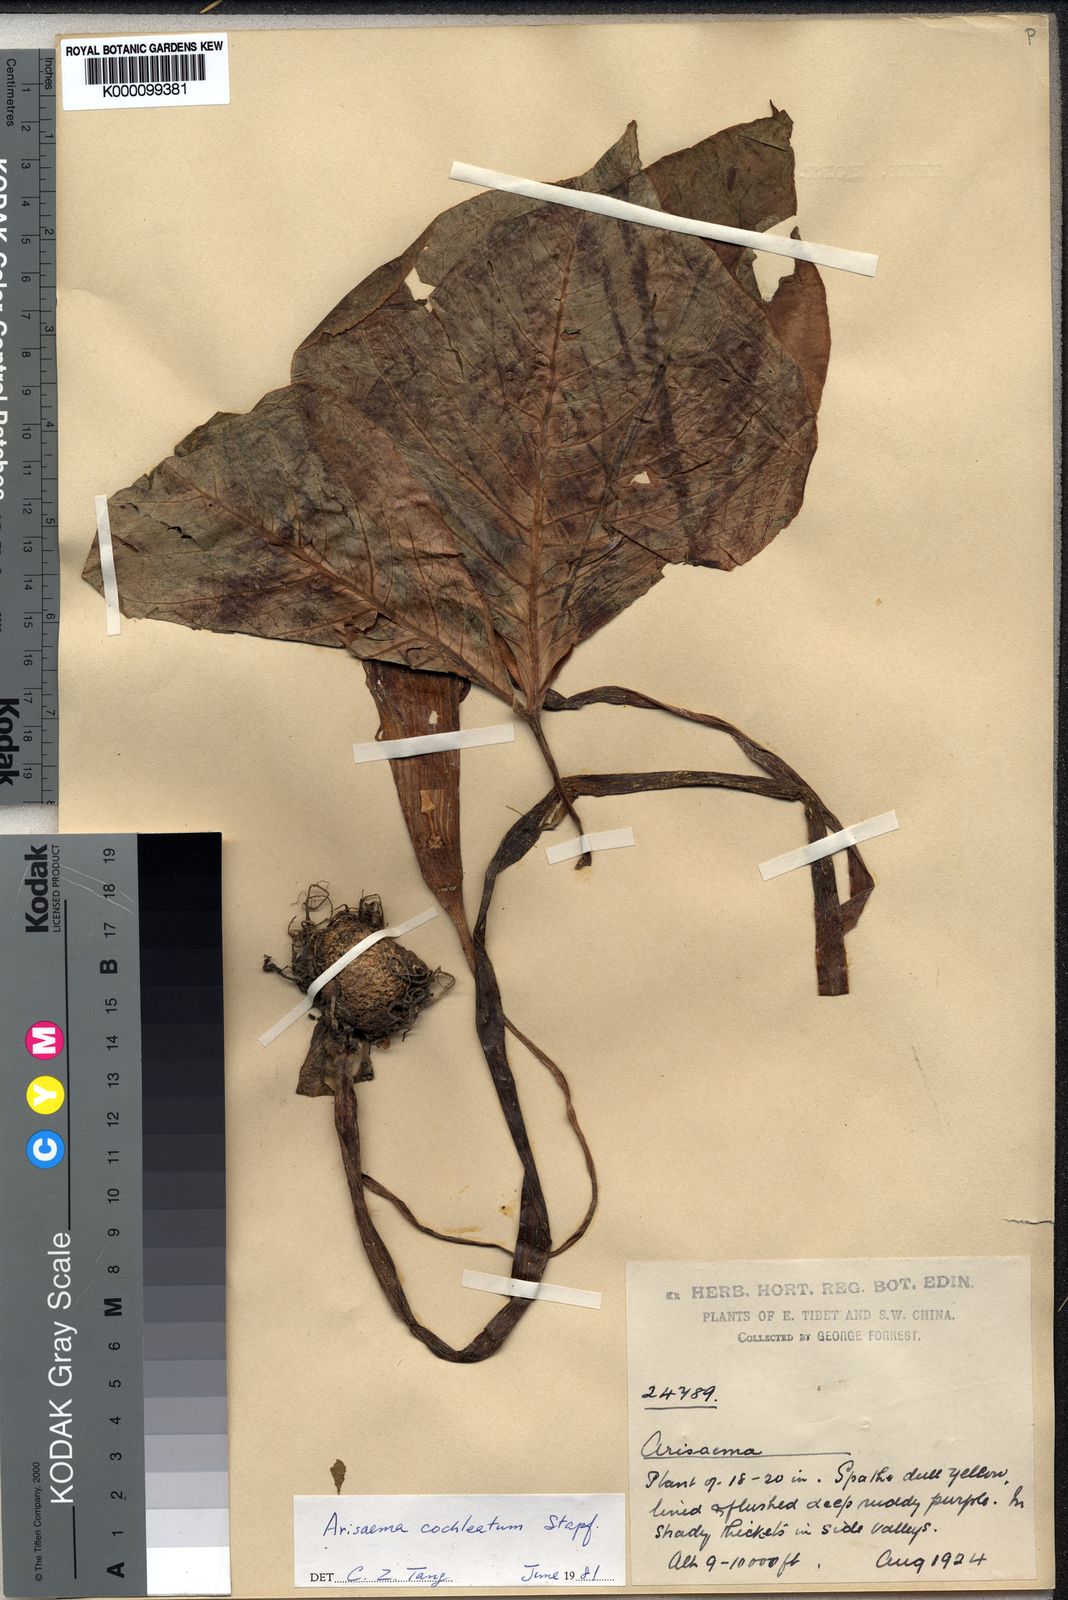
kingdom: Plantae
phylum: Tracheophyta
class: Liliopsida
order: Alismatales
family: Araceae
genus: Arisaema
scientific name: Arisaema
